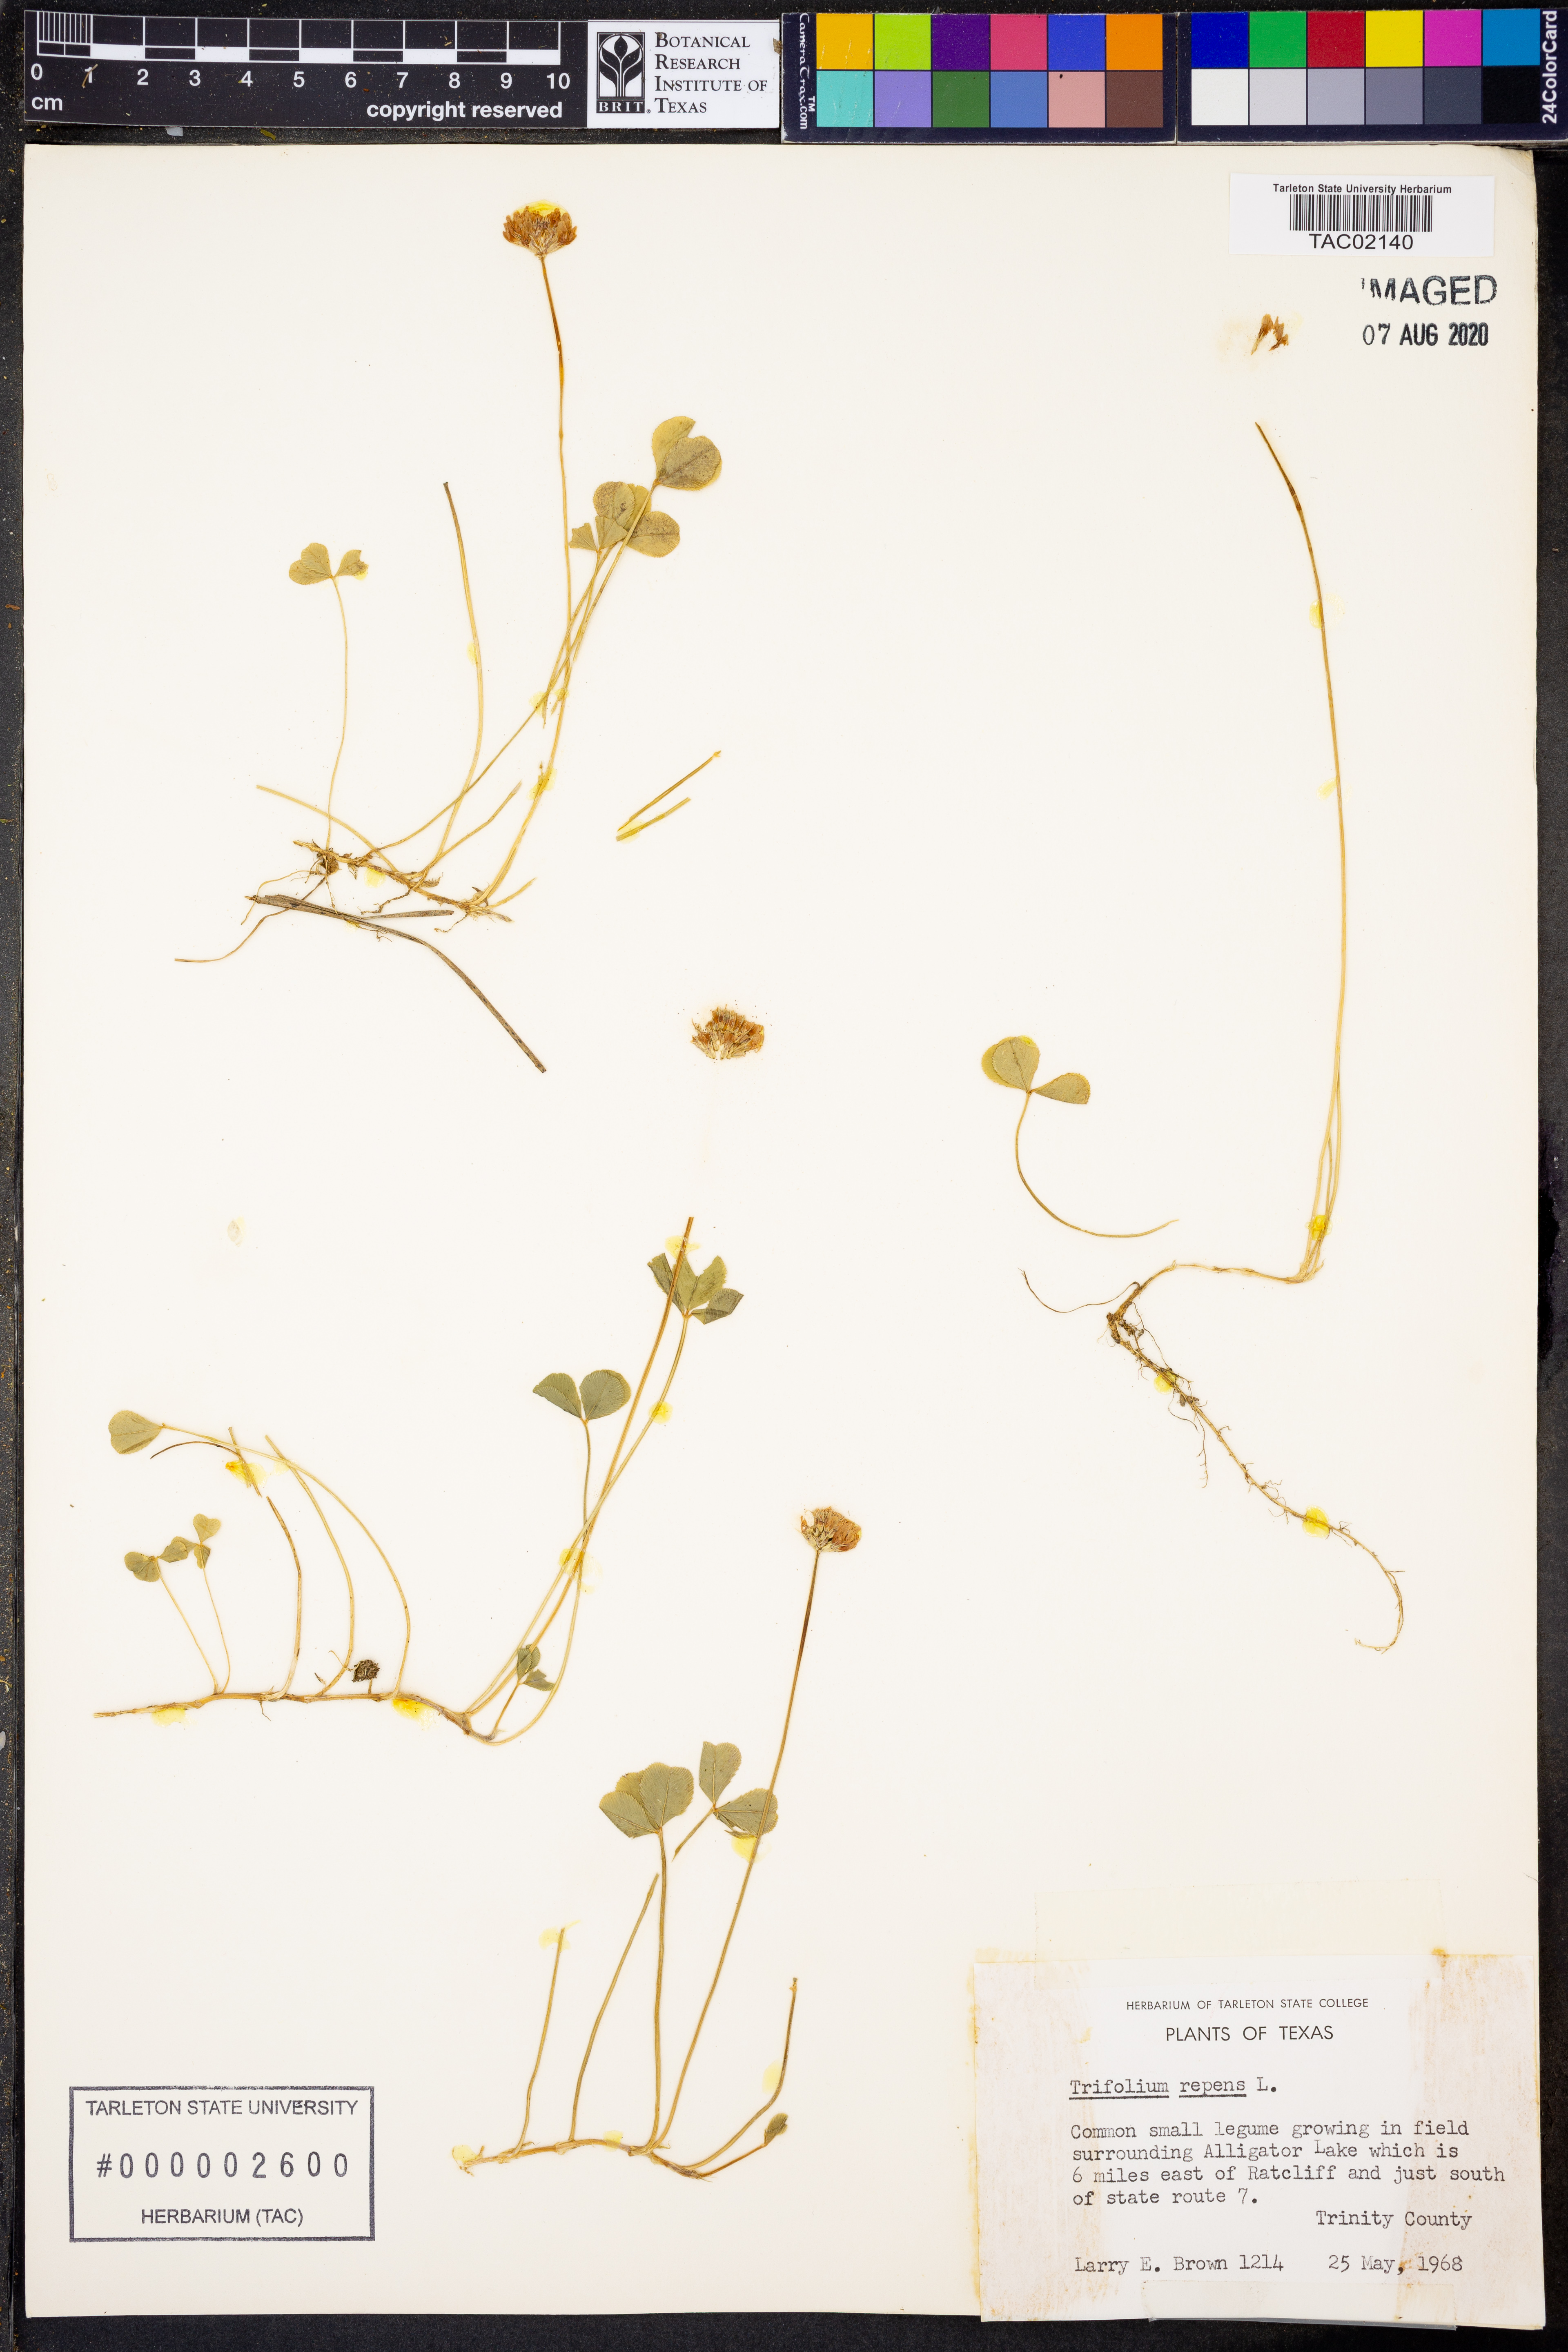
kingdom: Plantae
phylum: Tracheophyta
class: Magnoliopsida
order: Fabales
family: Fabaceae
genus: Trifolium
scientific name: Trifolium repens
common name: White clover
